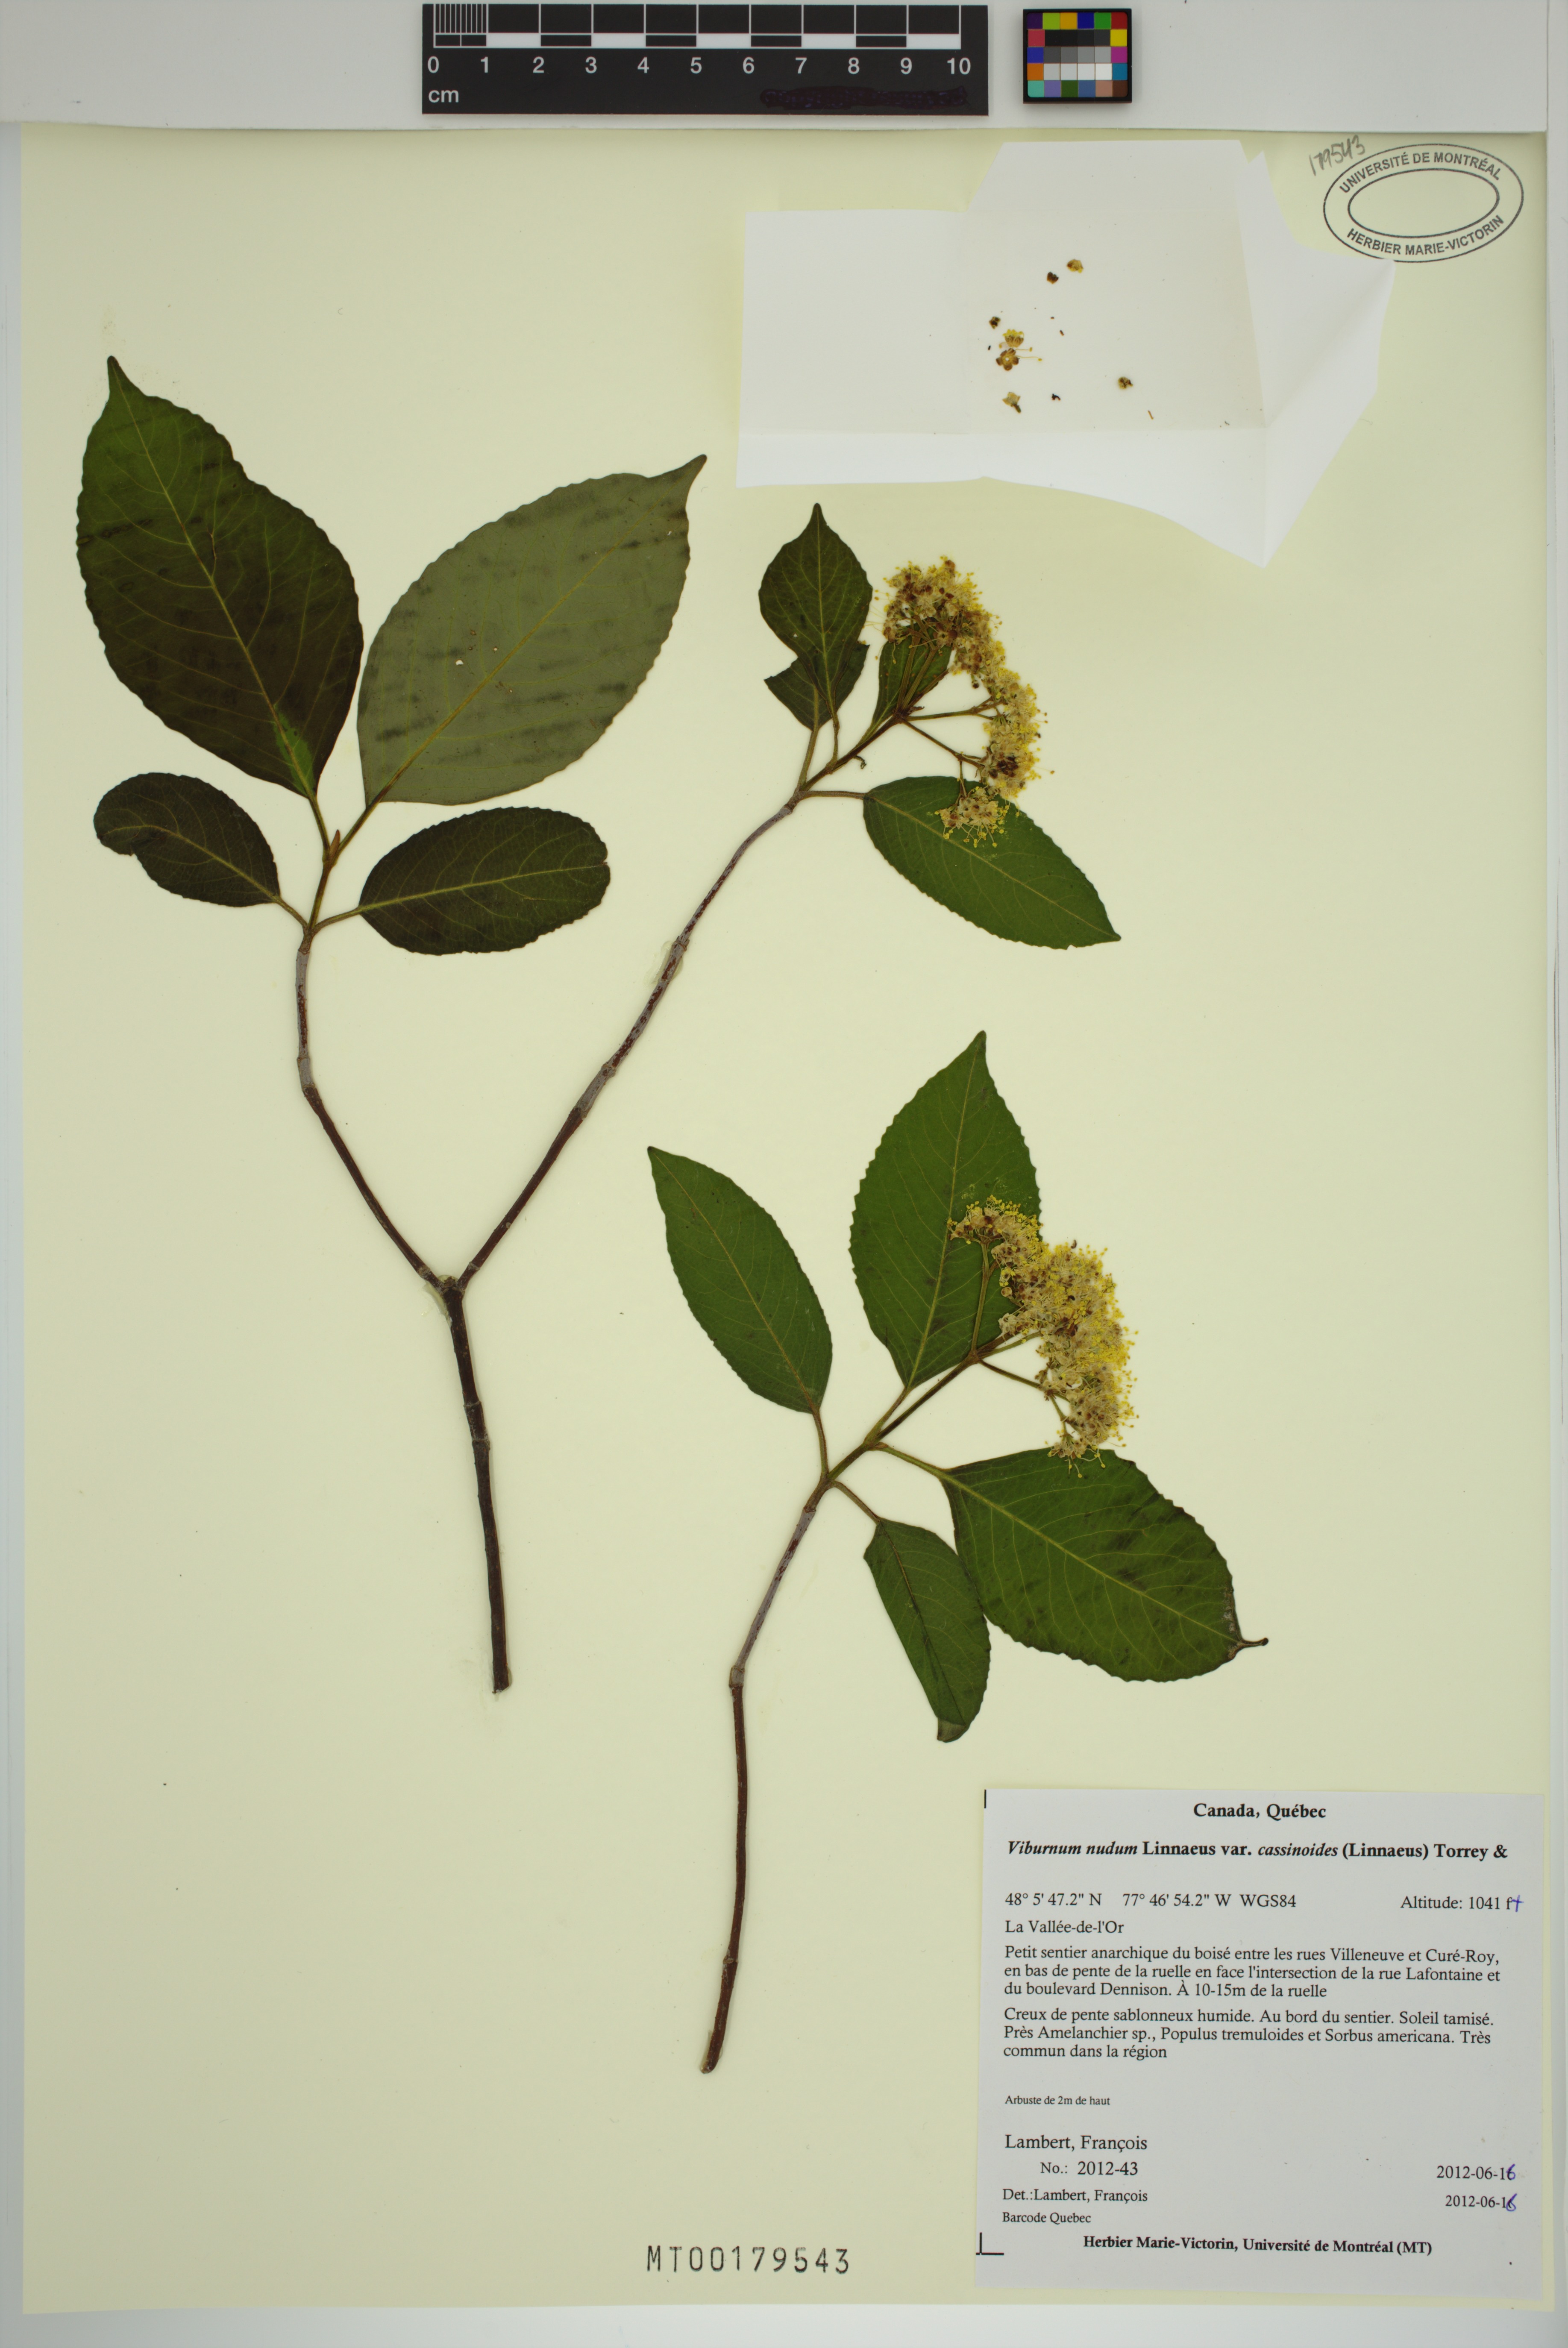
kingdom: Plantae
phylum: Tracheophyta
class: Magnoliopsida
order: Dipsacales
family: Viburnaceae
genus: Viburnum
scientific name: Viburnum cassinoides
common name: Swamp haw
